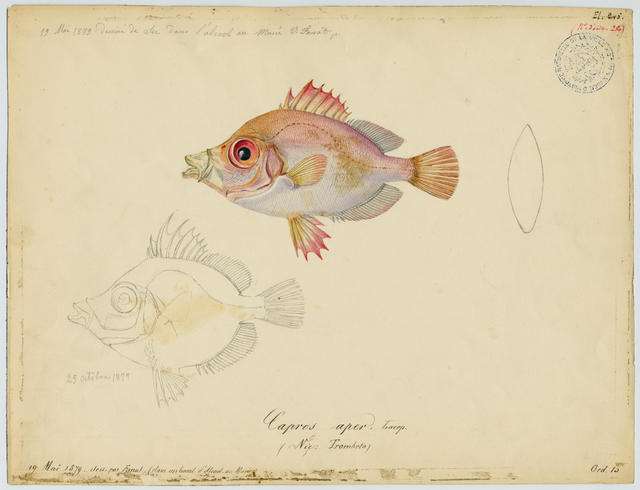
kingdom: Animalia
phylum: Chordata
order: Perciformes
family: Caproidae
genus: Capros
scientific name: Capros aper
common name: Boarfish
